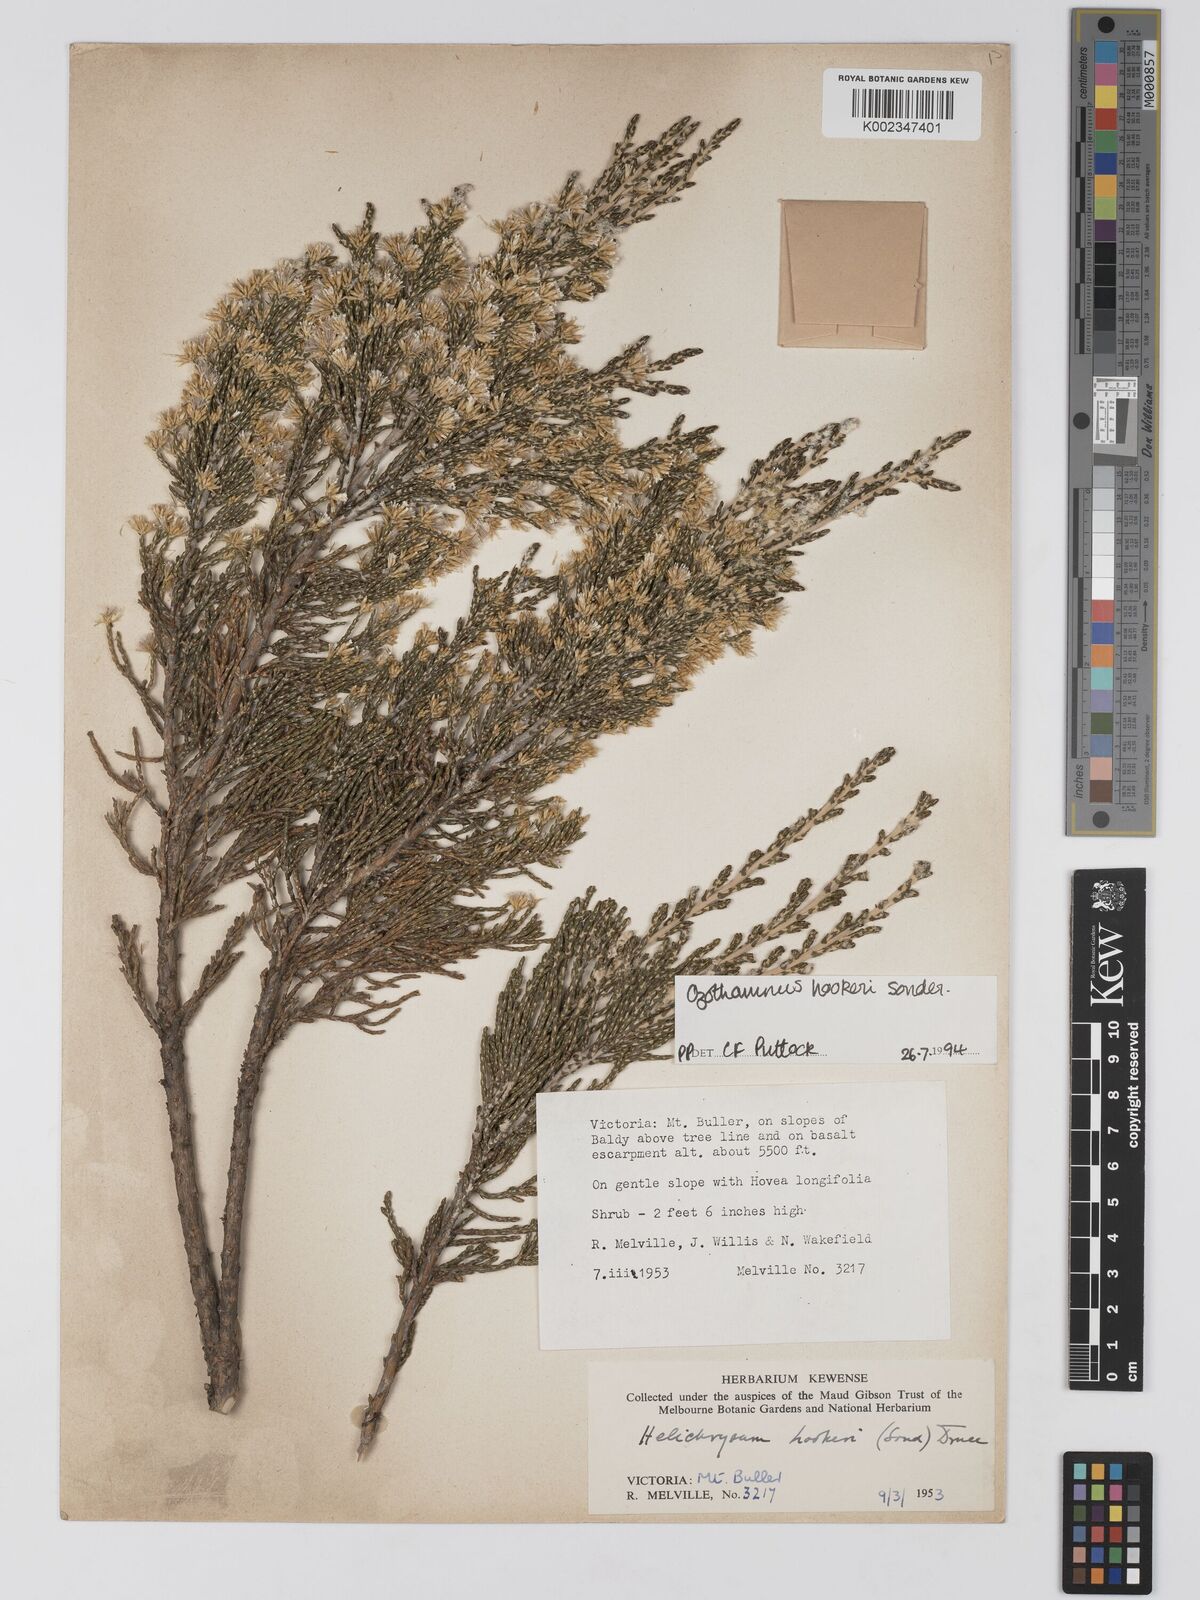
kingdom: Plantae
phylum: Tracheophyta
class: Magnoliopsida
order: Asterales
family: Asteraceae
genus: Ozothamnus
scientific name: Ozothamnus hookeri
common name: Kerosene-bush
